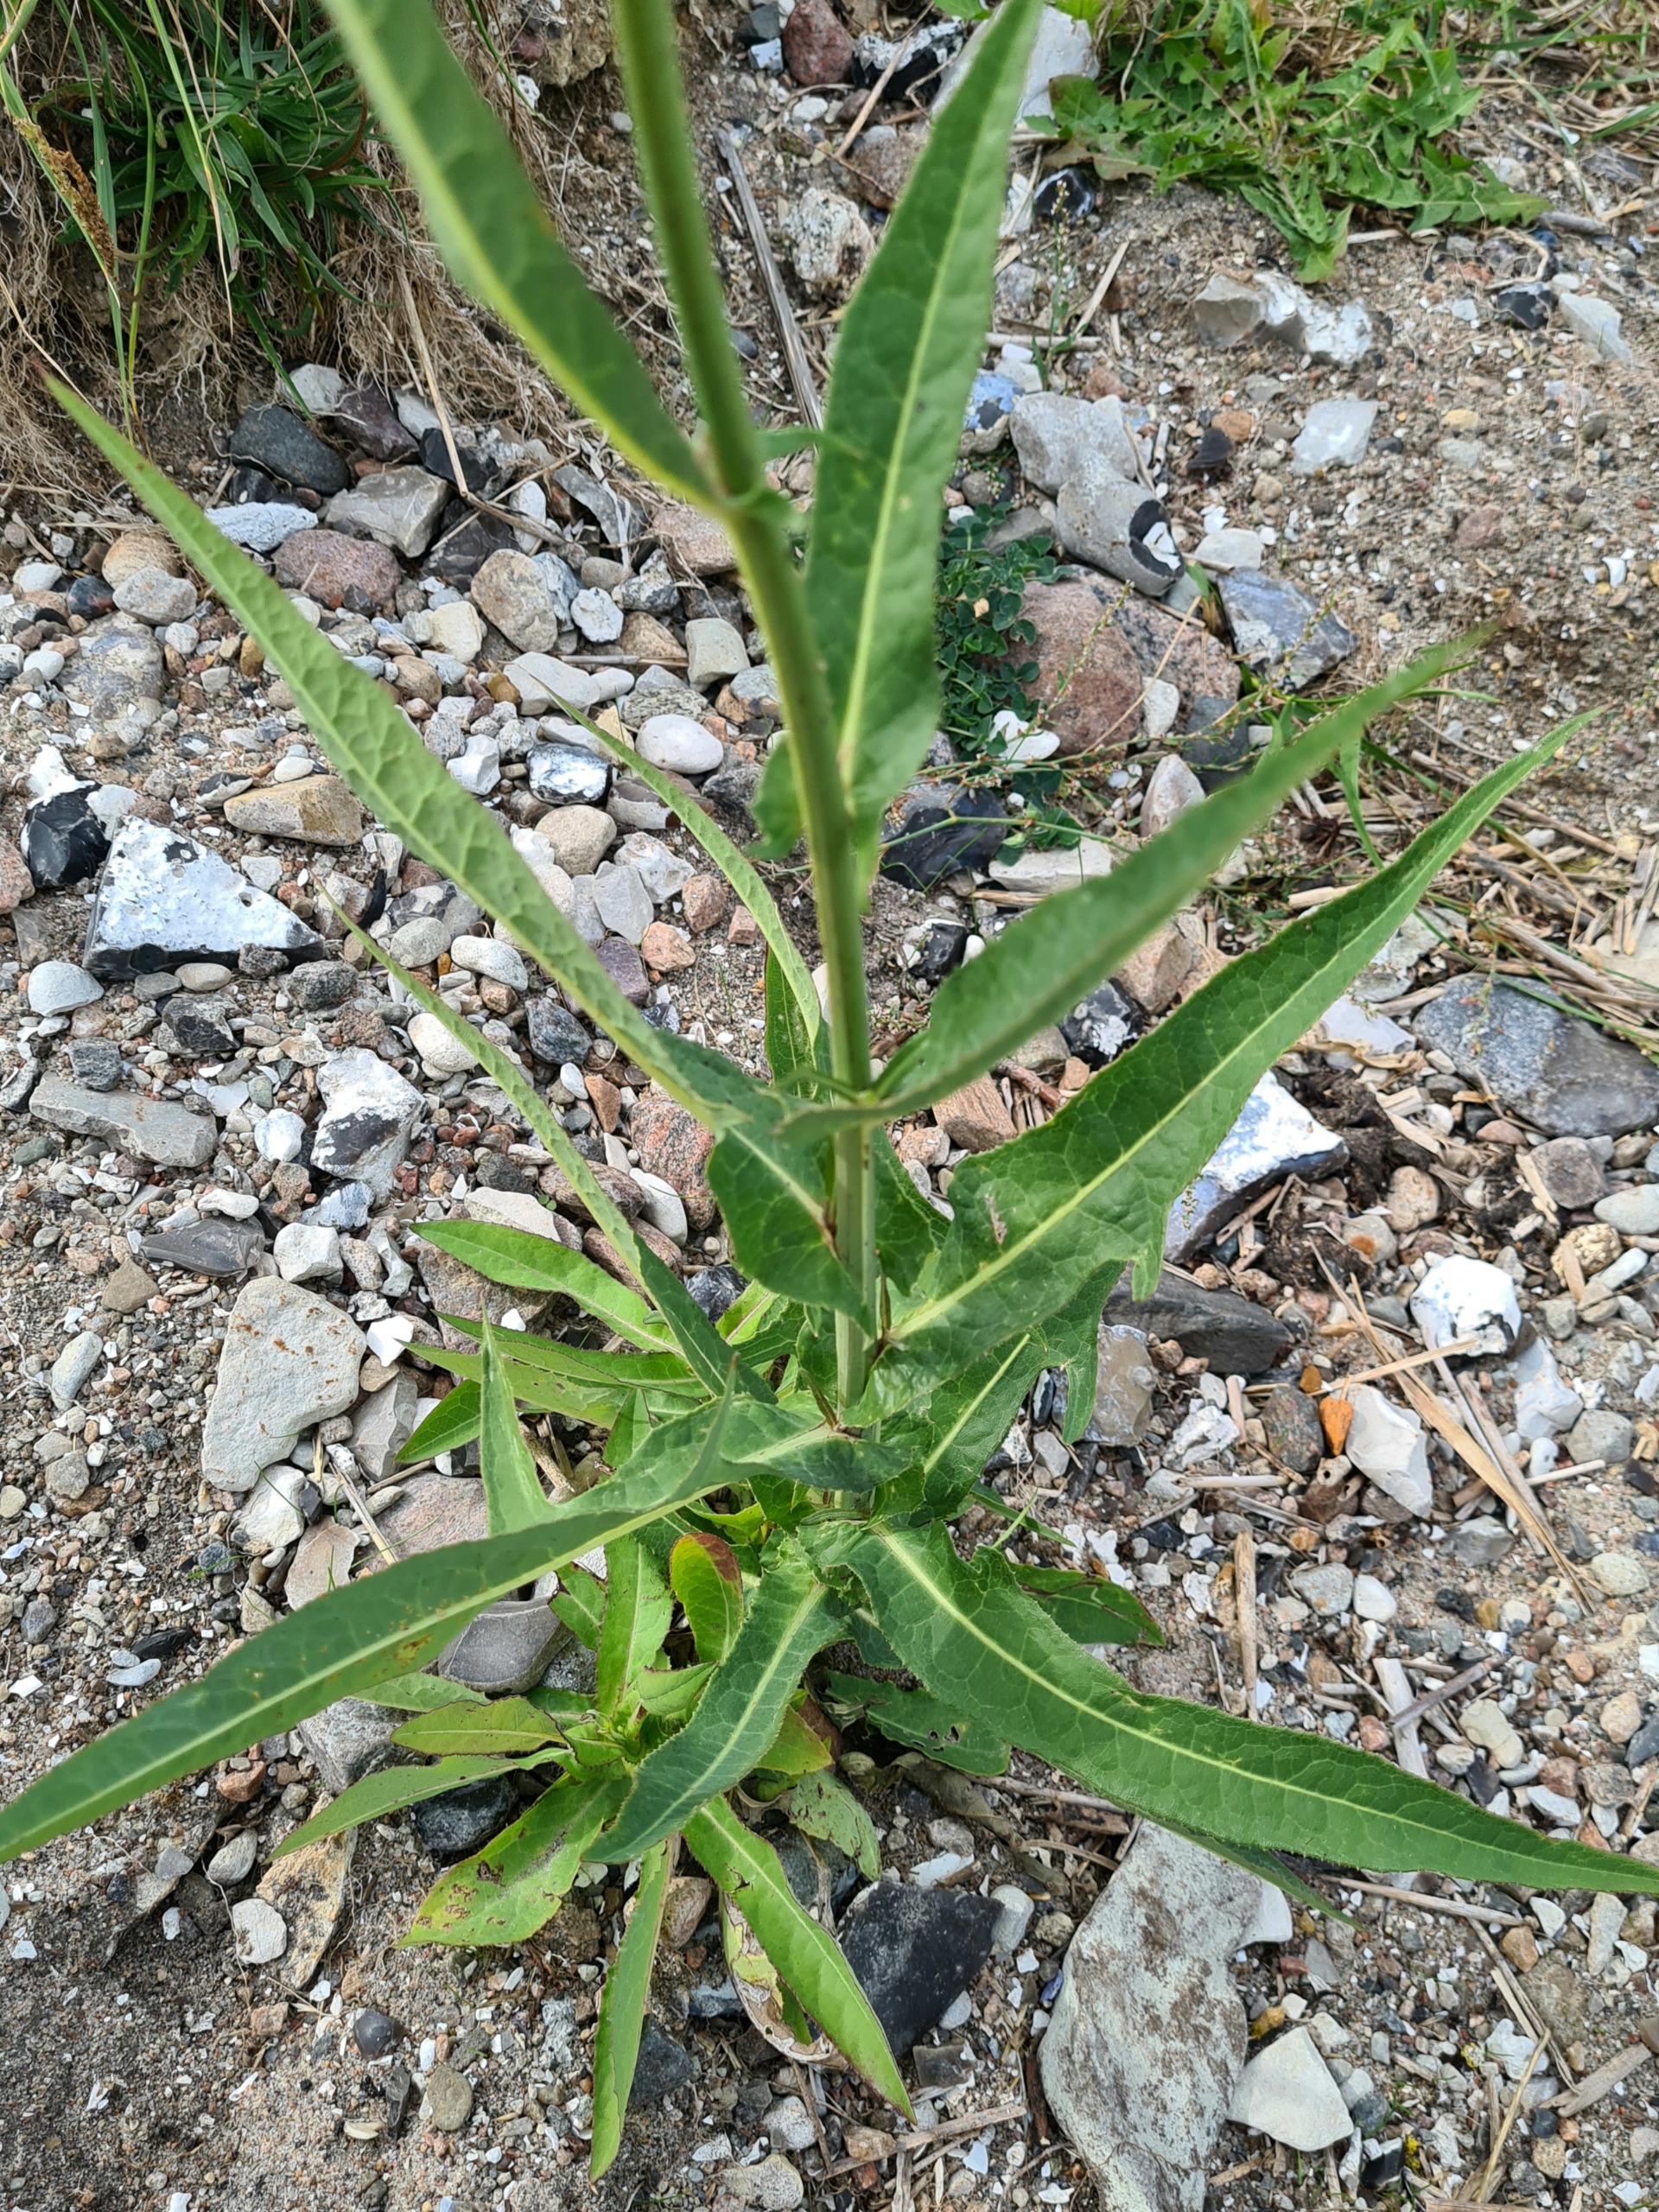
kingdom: Plantae
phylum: Tracheophyta
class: Magnoliopsida
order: Asterales
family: Asteraceae
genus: Sonchus
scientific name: Sonchus palustris
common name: Kær-svinemælk
